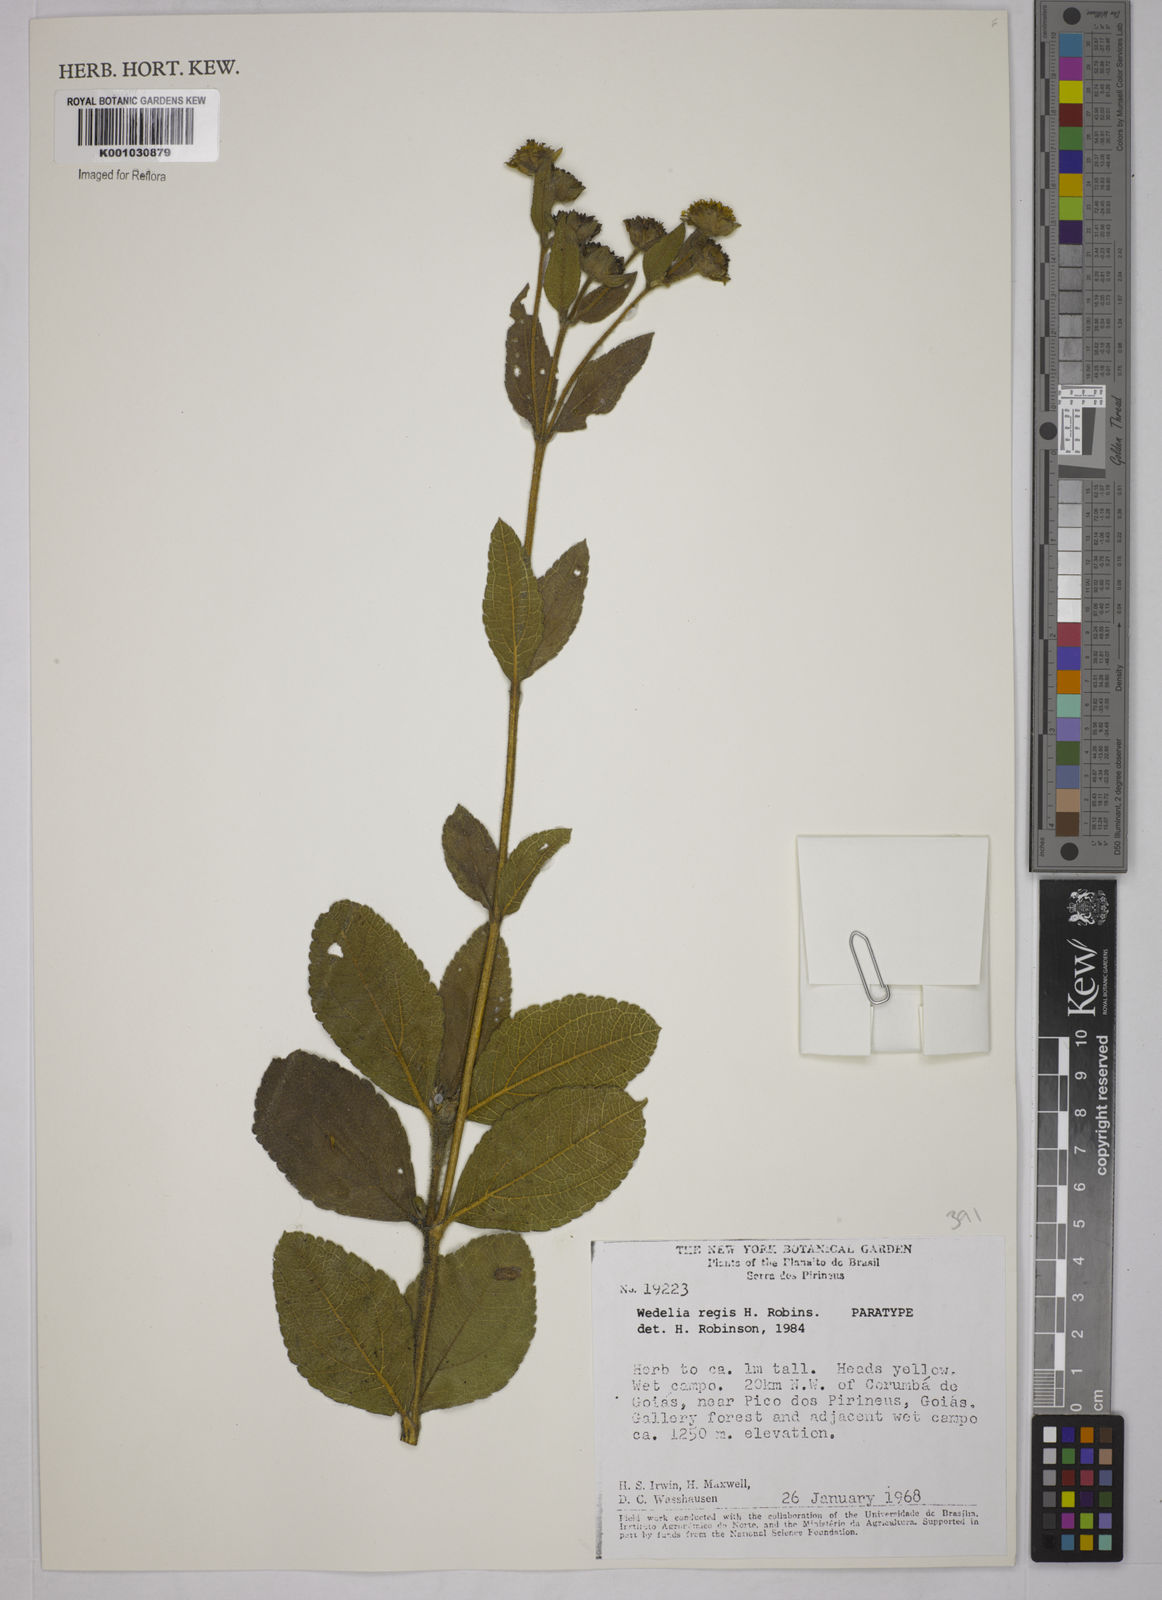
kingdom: Plantae
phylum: Tracheophyta
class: Magnoliopsida
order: Asterales
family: Asteraceae
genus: Wedelia
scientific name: Wedelia regis
